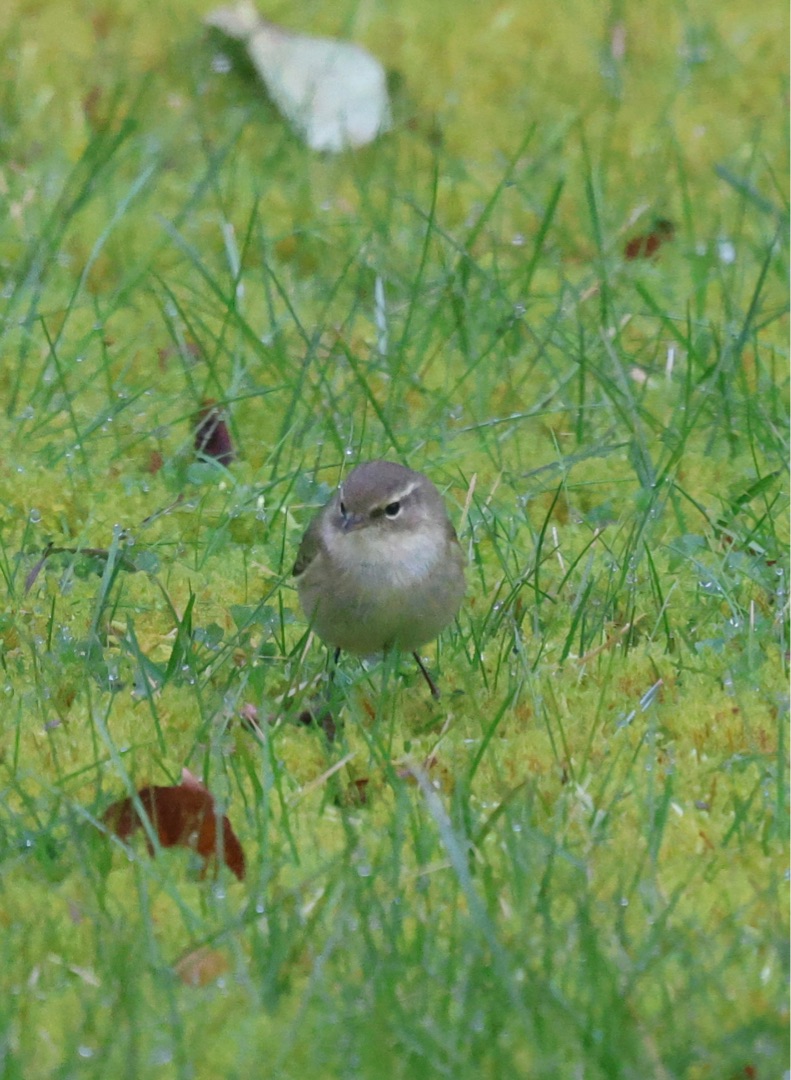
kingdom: Animalia
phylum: Chordata
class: Aves
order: Passeriformes
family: Phylloscopidae
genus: Phylloscopus
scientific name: Phylloscopus collybita
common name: Gransanger
